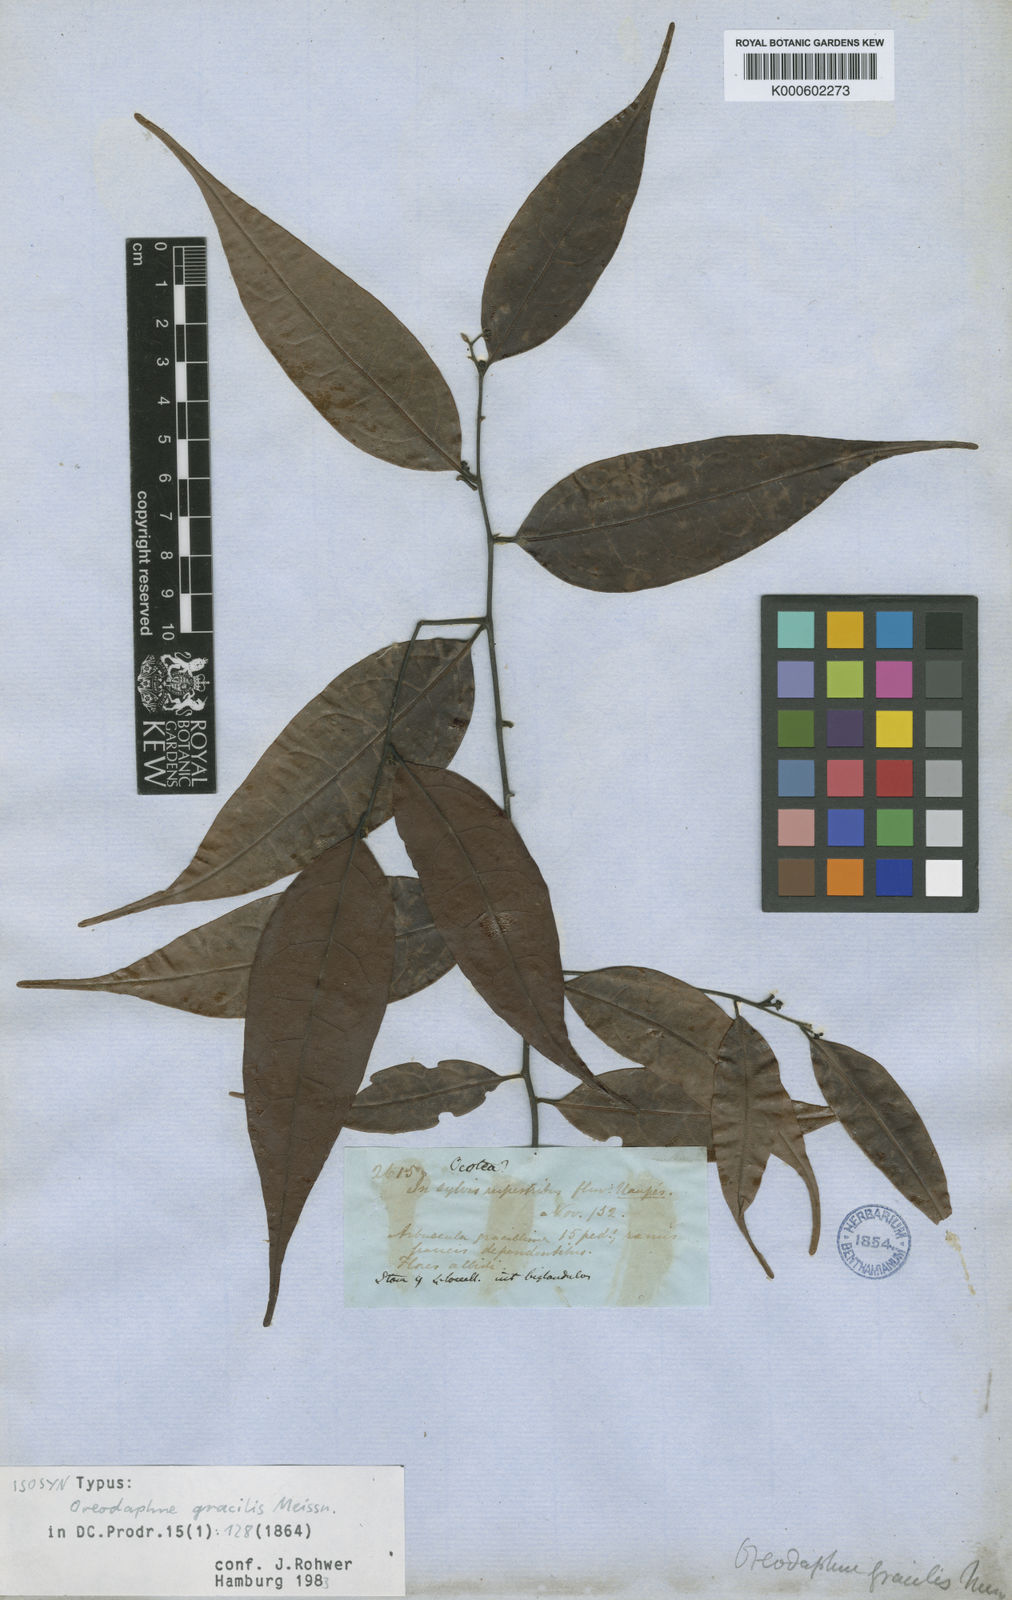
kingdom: Plantae
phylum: Tracheophyta
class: Magnoliopsida
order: Laurales
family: Lauraceae
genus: Ocotea
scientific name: Ocotea gracilis
